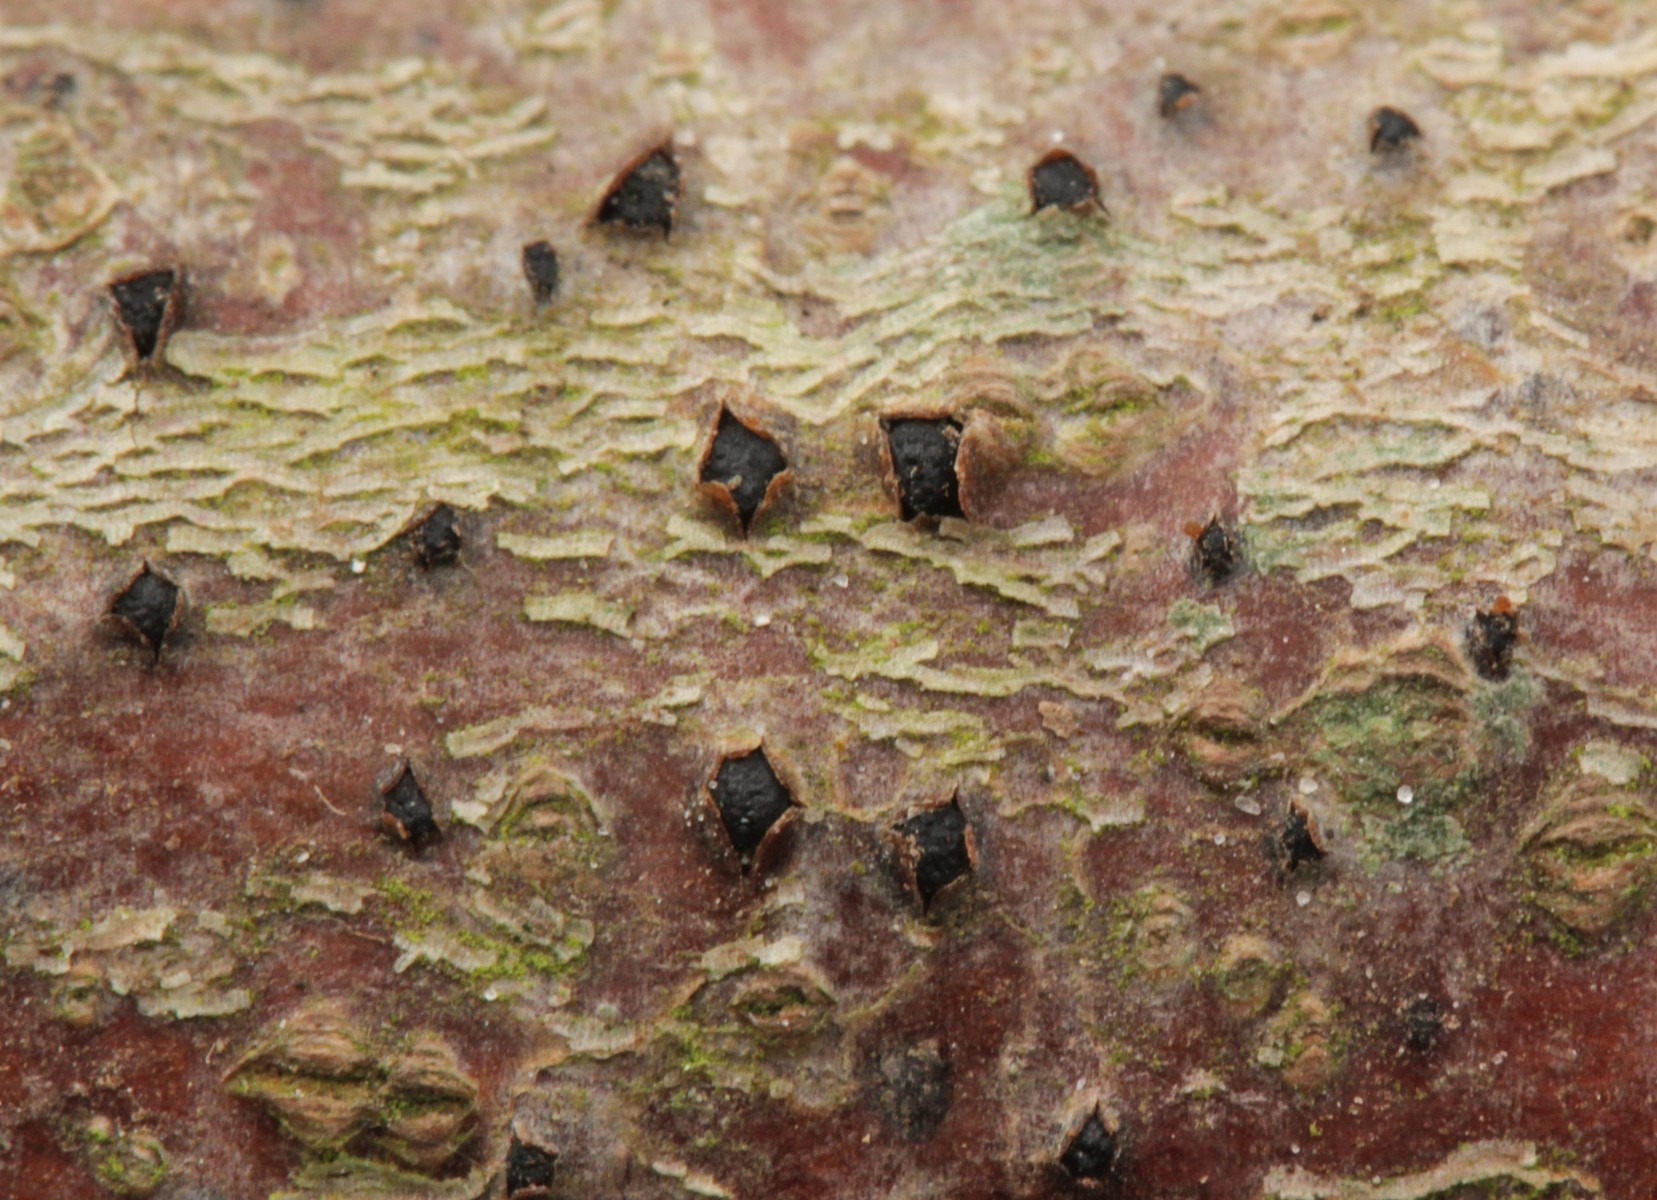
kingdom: Fungi
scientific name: Fungi
